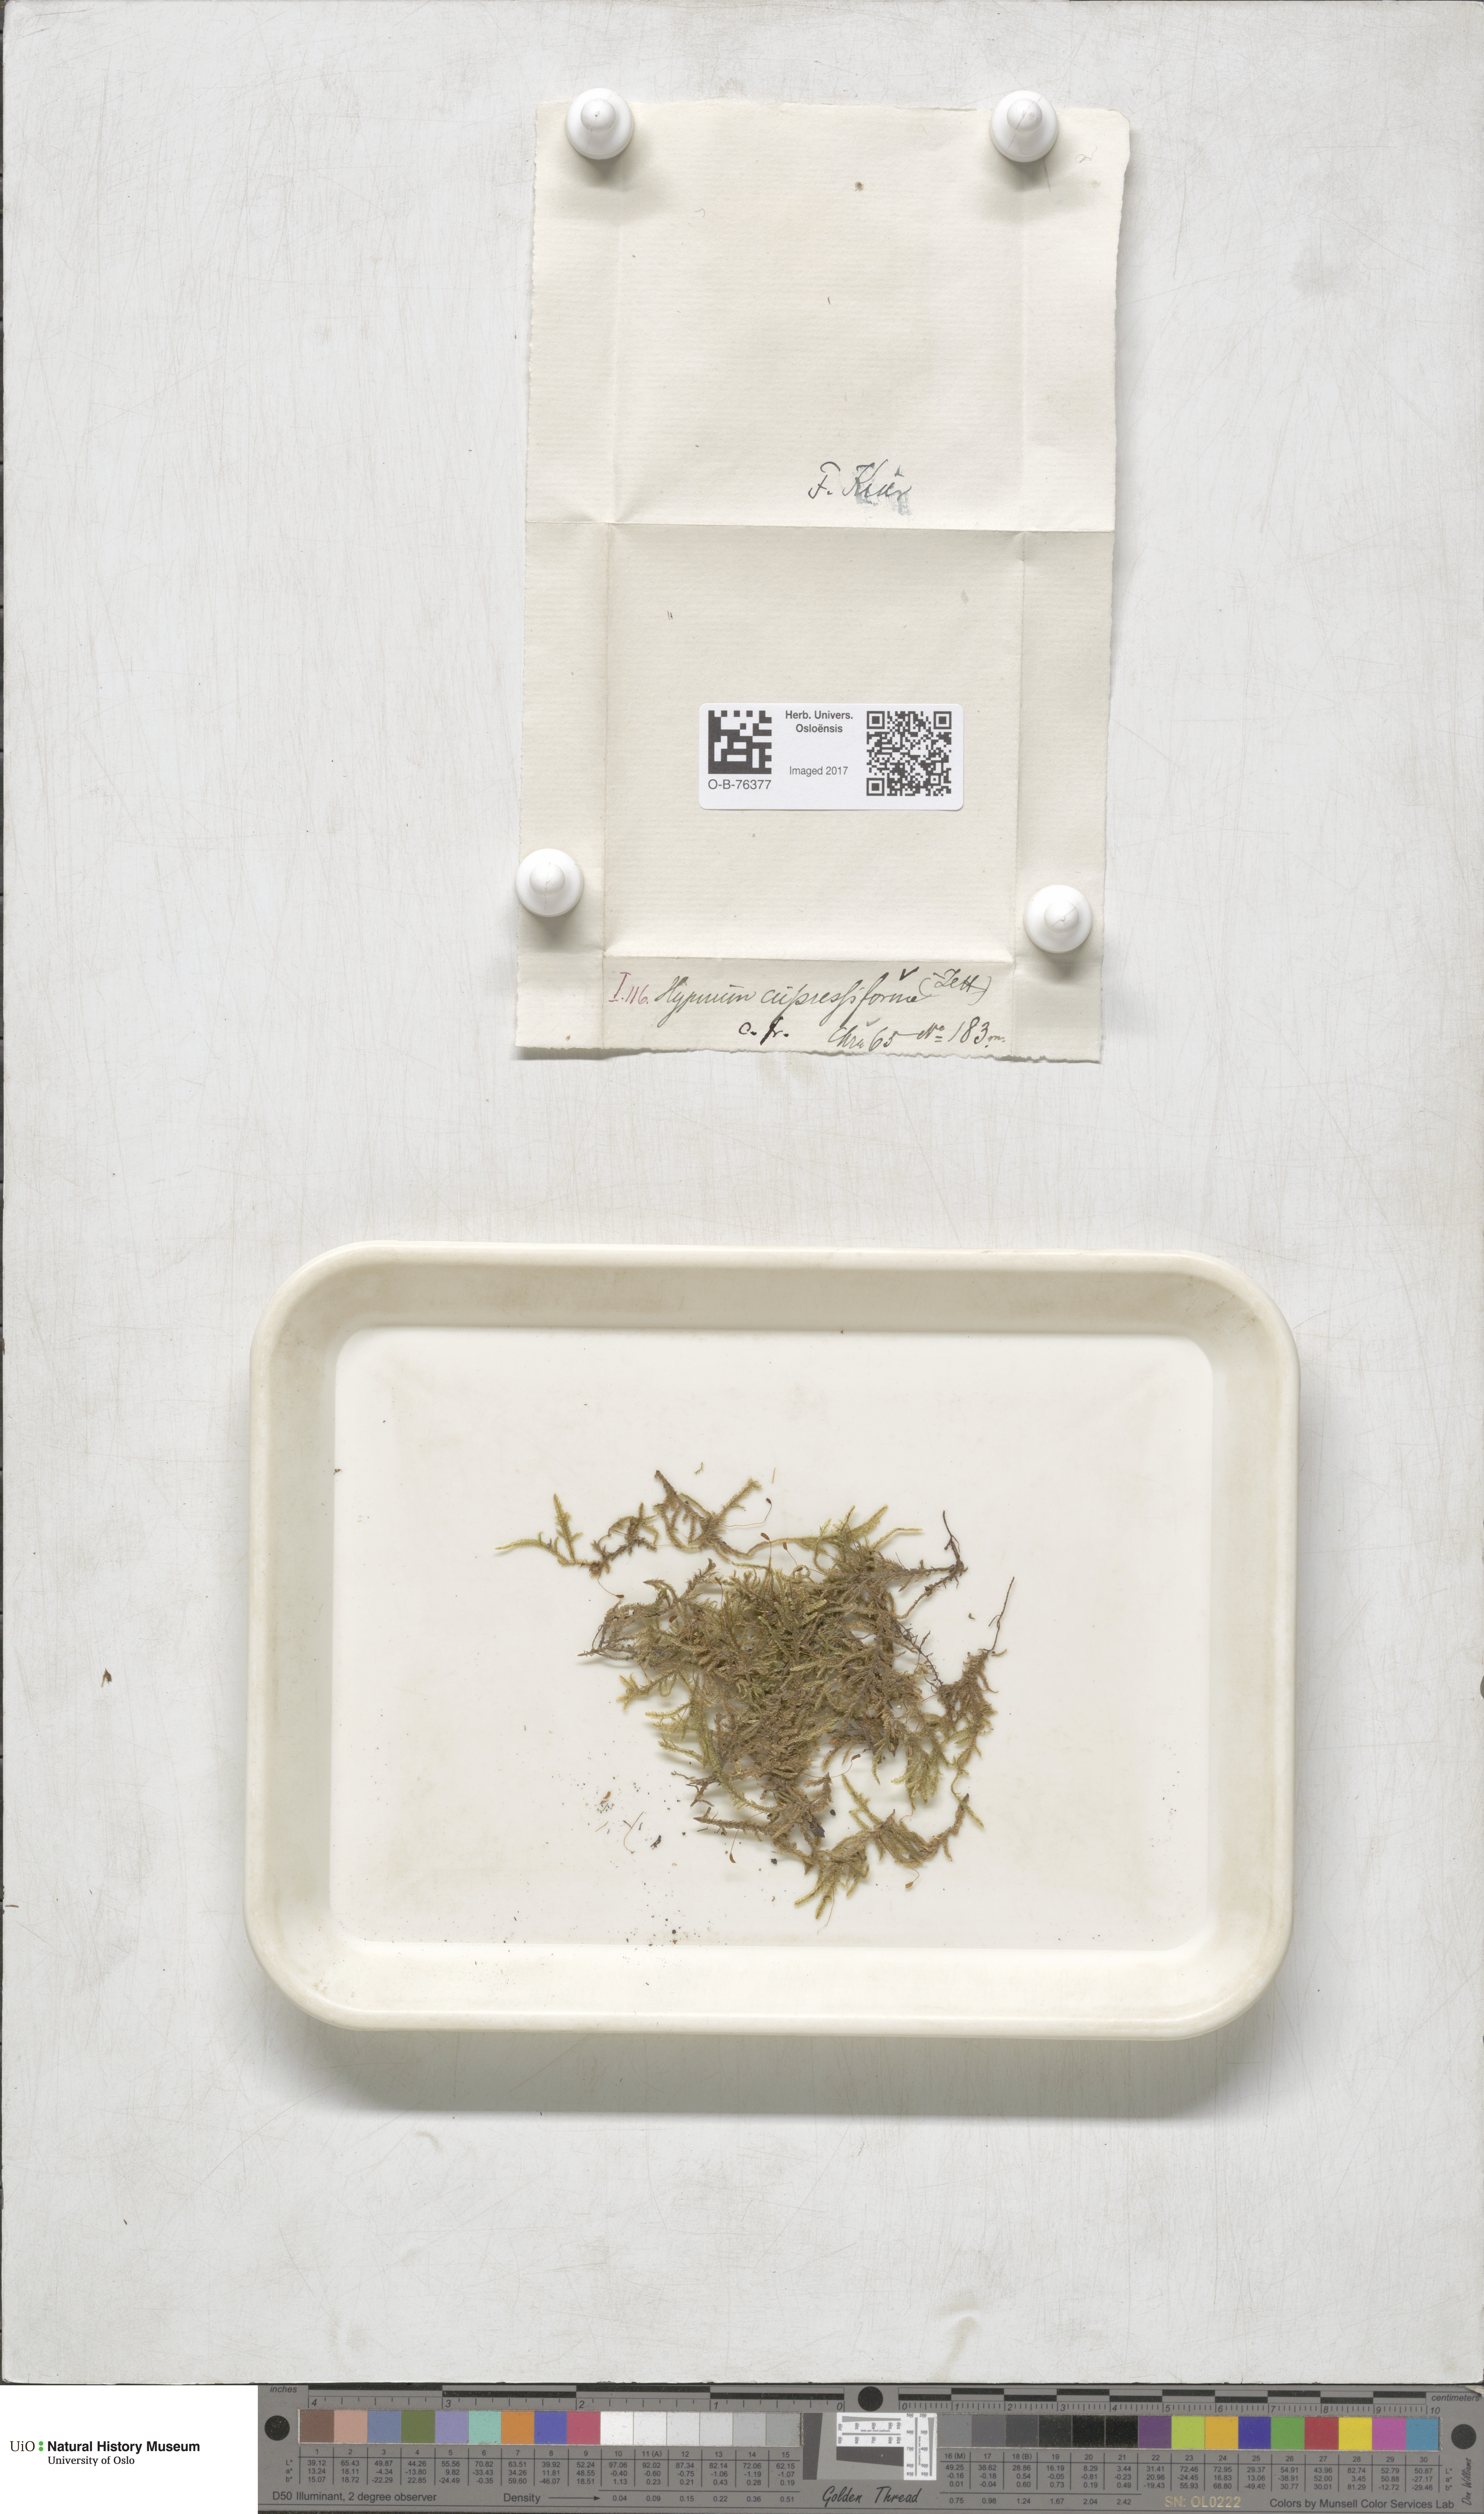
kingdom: Plantae
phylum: Bryophyta
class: Bryopsida
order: Hypnales
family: Hypnaceae
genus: Hypnum
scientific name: Hypnum cupressiforme
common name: Cypress-leaved plait-moss
